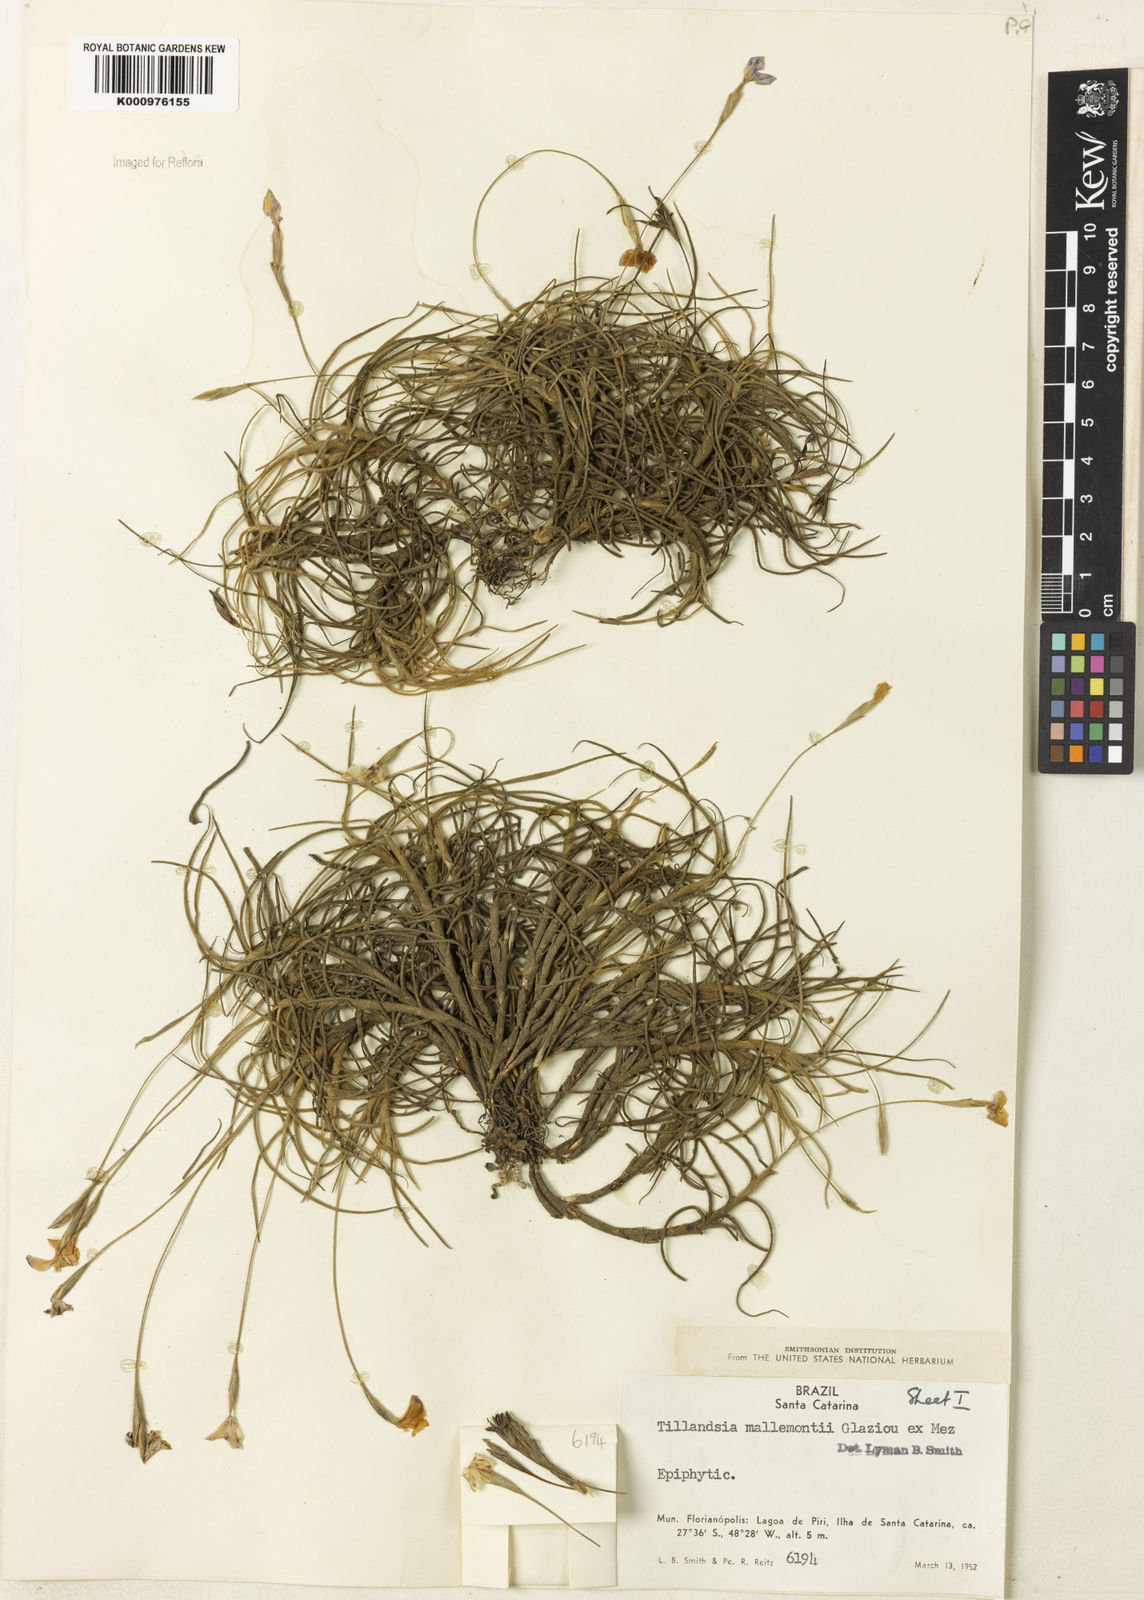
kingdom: Plantae
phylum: Tracheophyta
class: Liliopsida
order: Poales
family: Bromeliaceae
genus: Tillandsia
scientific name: Tillandsia mallemontii
